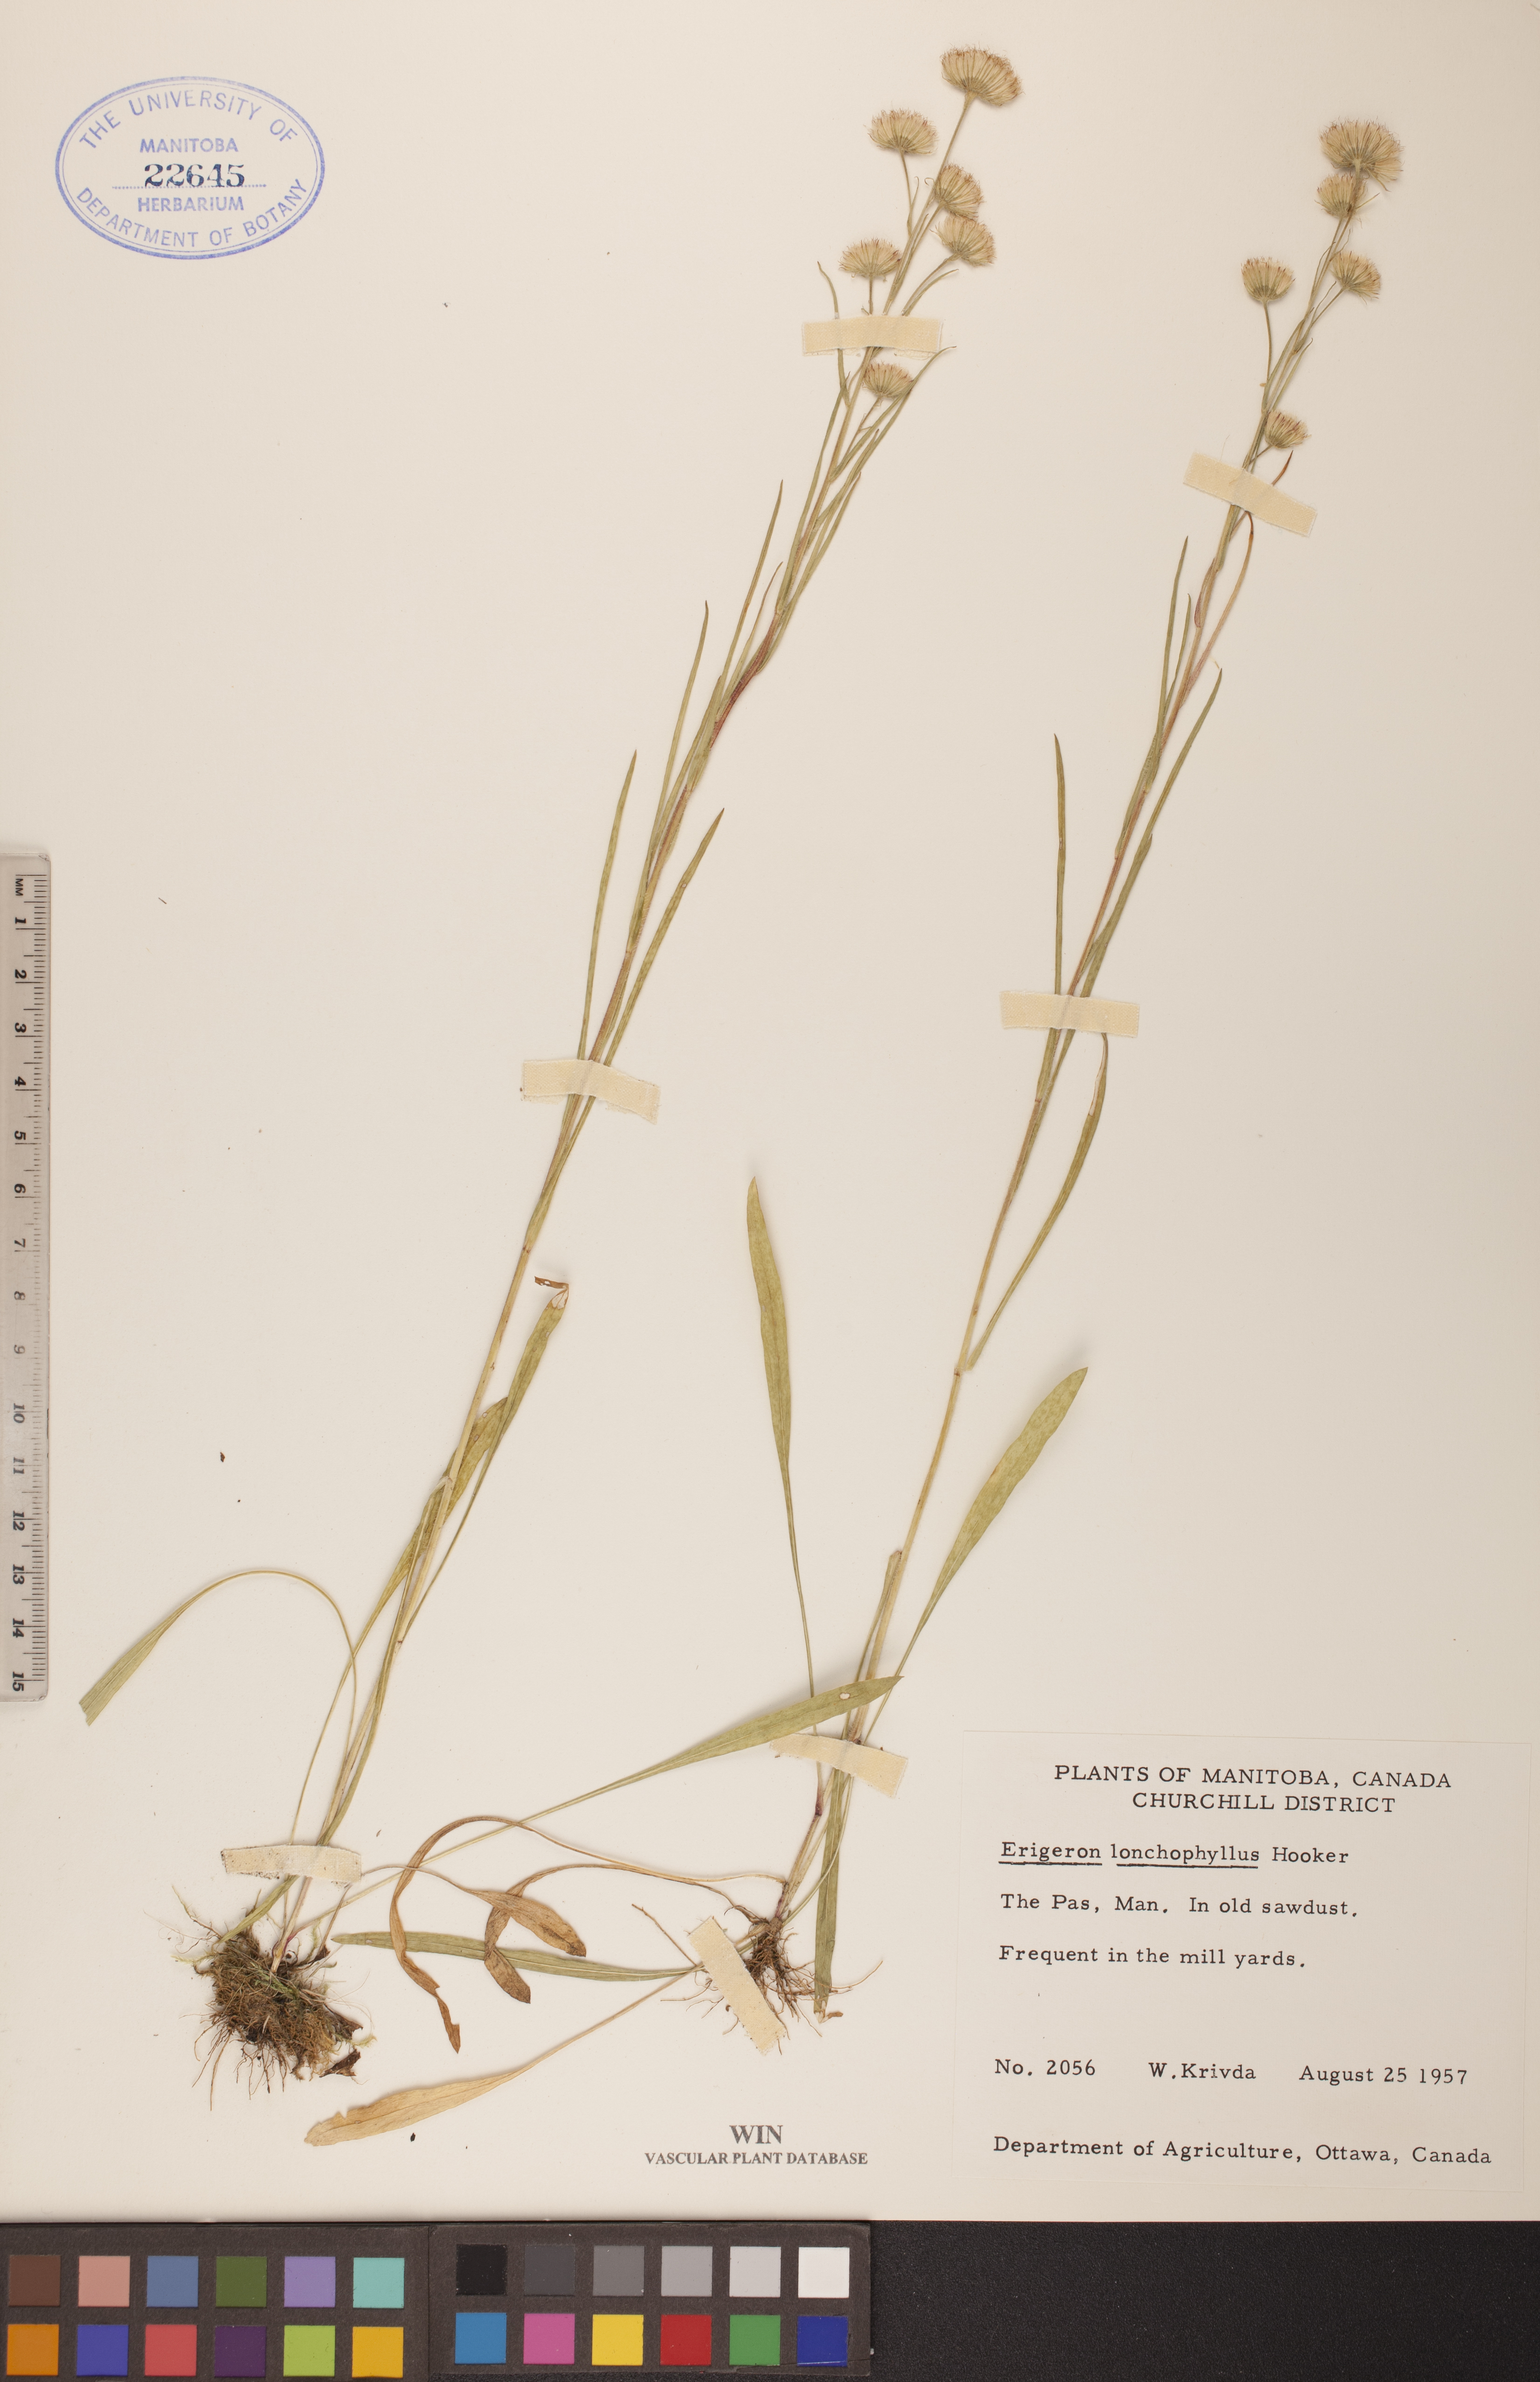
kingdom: Plantae
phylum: Tracheophyta
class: Magnoliopsida
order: Asterales
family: Asteraceae
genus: Erigeron
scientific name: Erigeron lonchophyllus
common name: Short-ray fleabane
